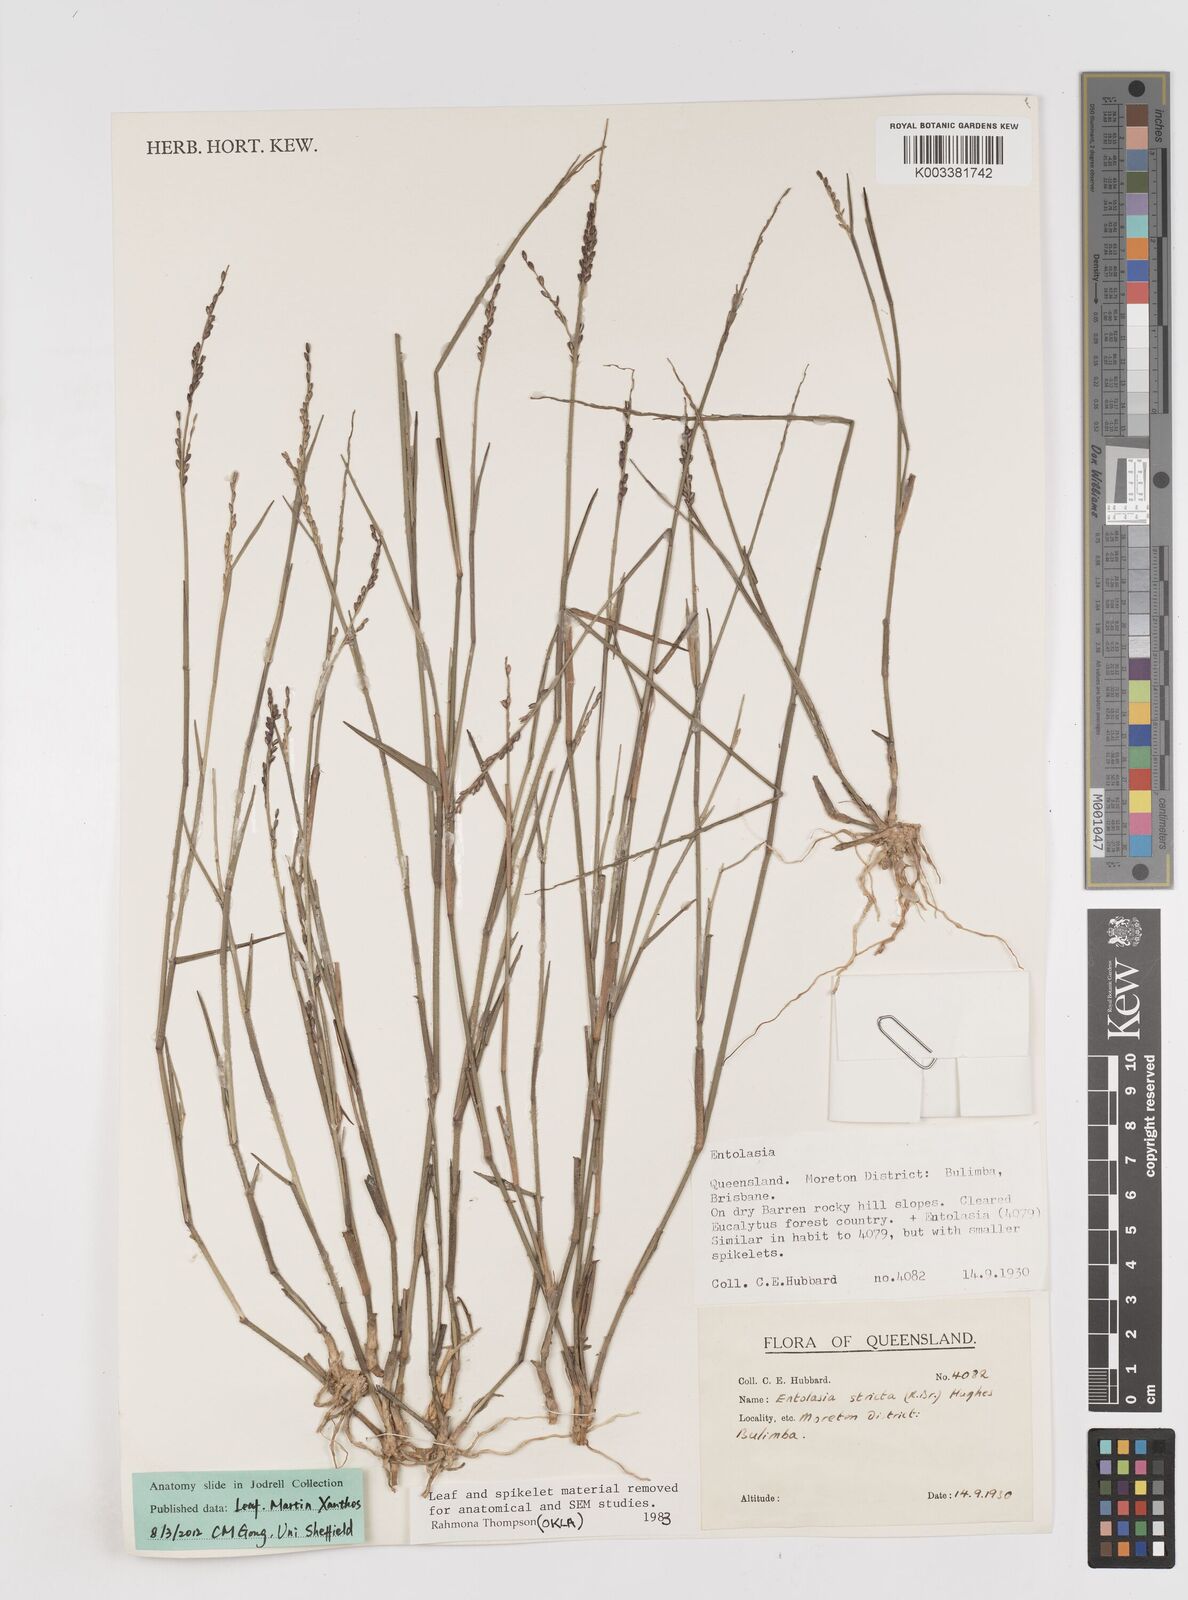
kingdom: Plantae
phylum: Tracheophyta
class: Liliopsida
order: Poales
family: Poaceae
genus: Entolasia
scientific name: Entolasia stricta
